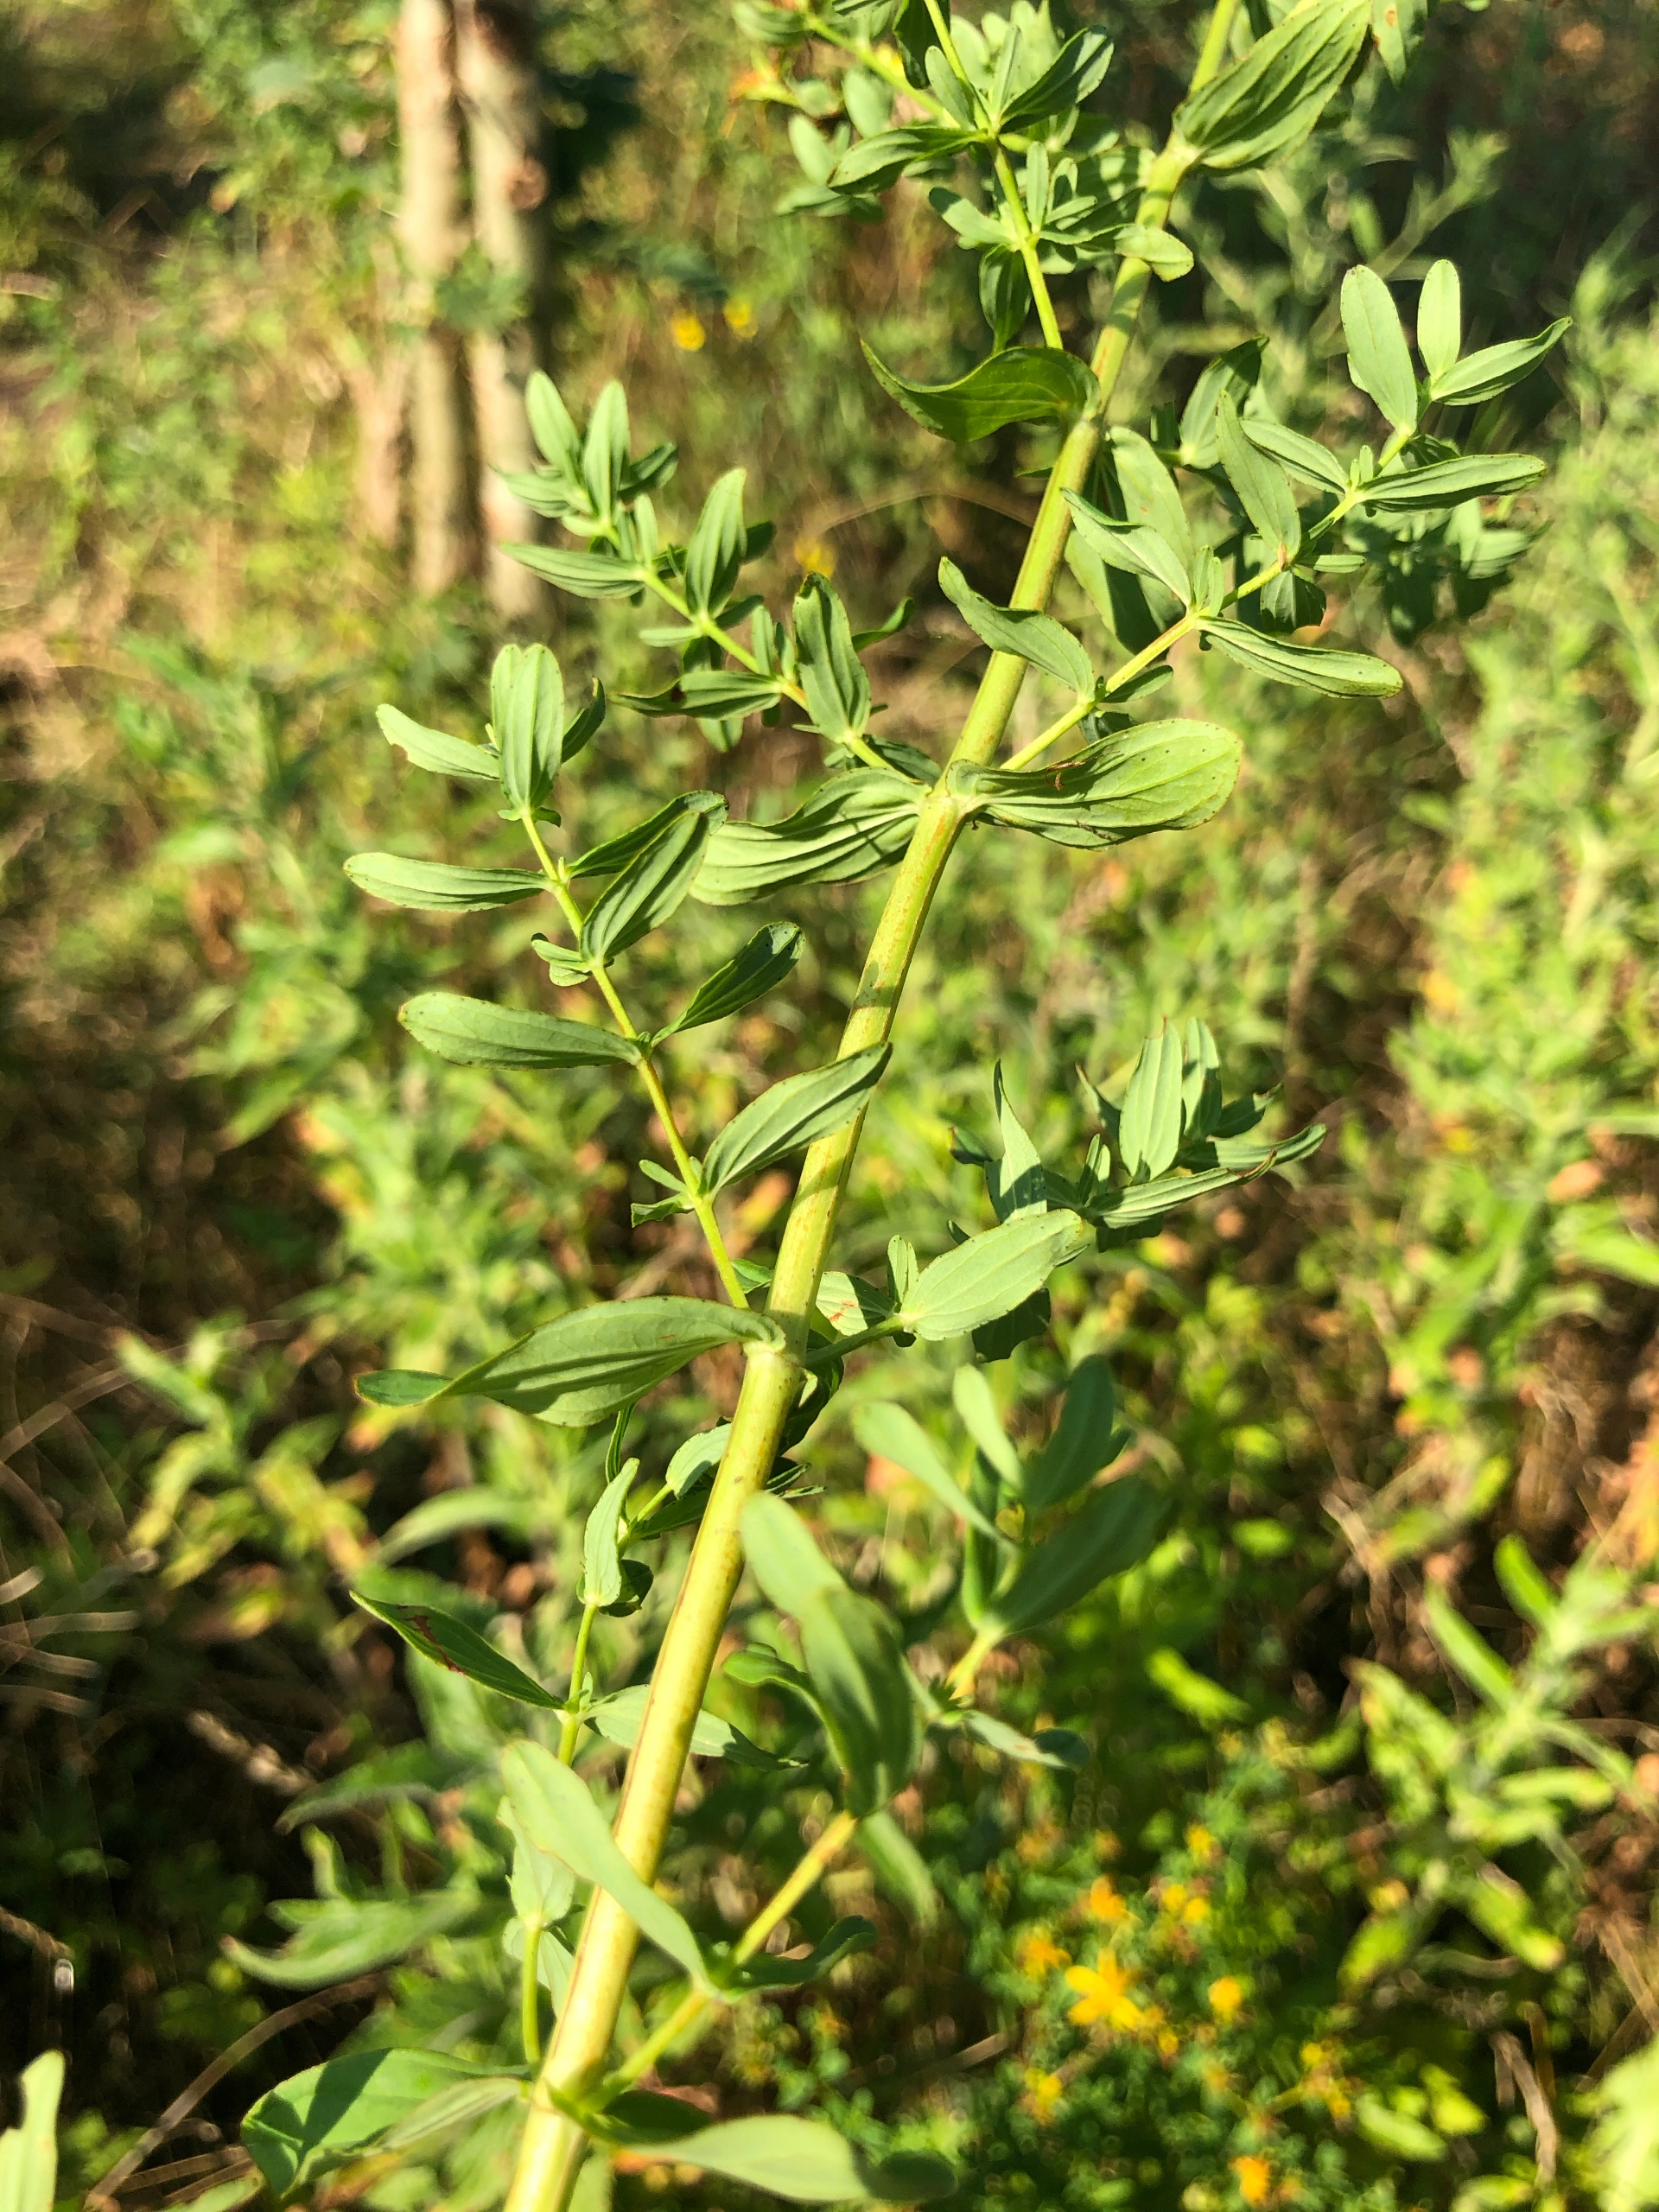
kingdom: Plantae
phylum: Tracheophyta
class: Magnoliopsida
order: Malpighiales
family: Hypericaceae
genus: Hypericum
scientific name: Hypericum perforatum
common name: Prikbladet perikon
